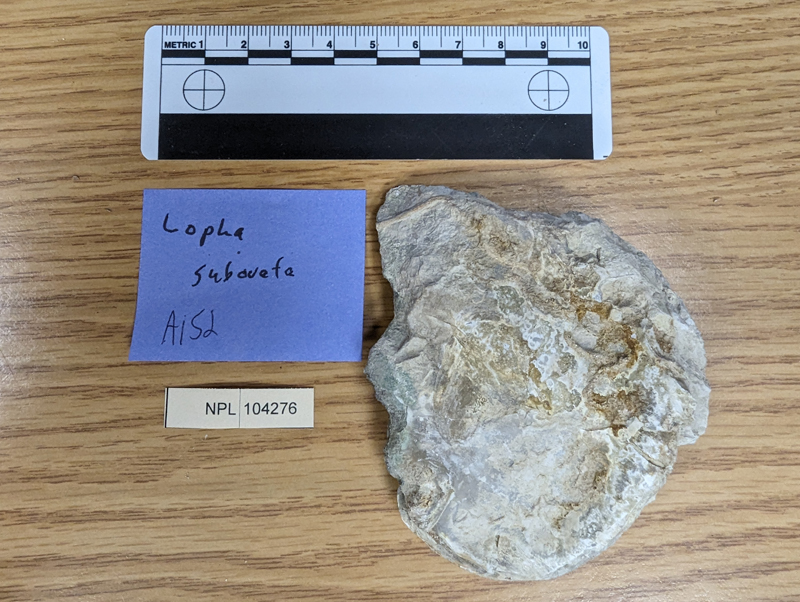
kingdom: Animalia
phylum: Mollusca
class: Bivalvia
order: Ostreida
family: Ostreidae
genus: Lopha
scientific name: Lopha
